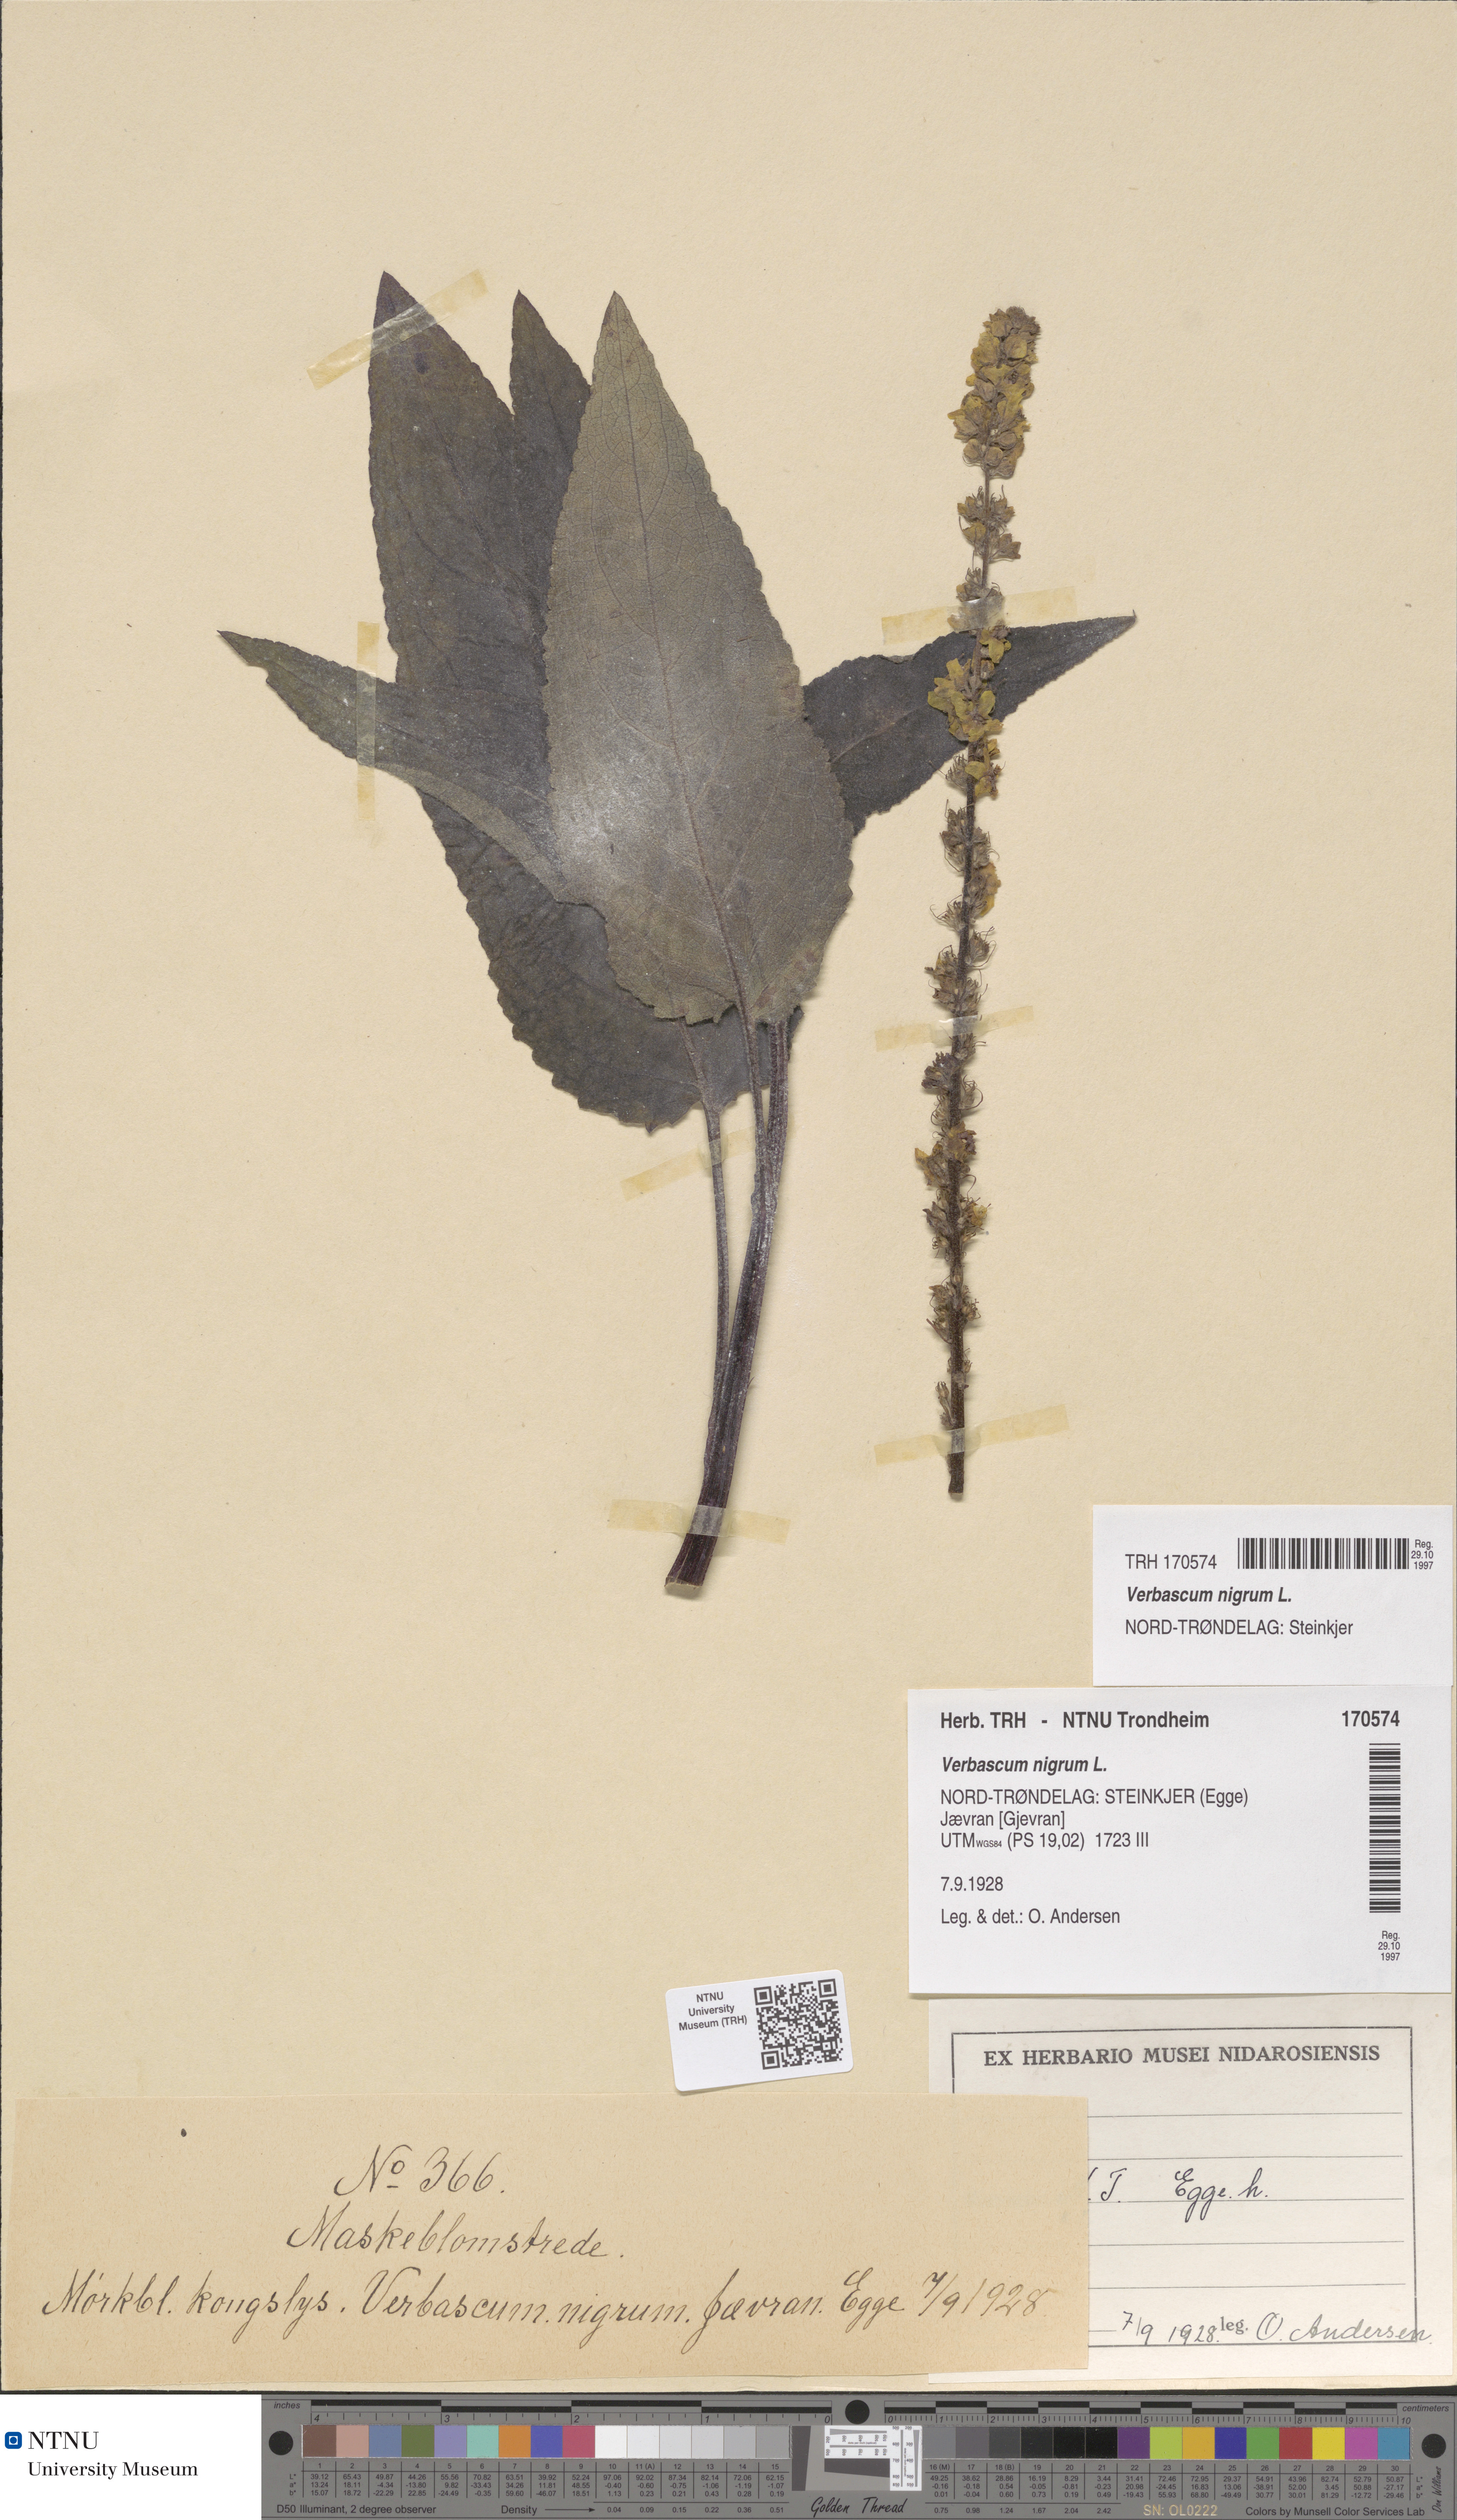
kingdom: Plantae
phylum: Tracheophyta
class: Magnoliopsida
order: Lamiales
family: Scrophulariaceae
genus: Verbascum
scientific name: Verbascum nigrum
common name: Dark mullein
